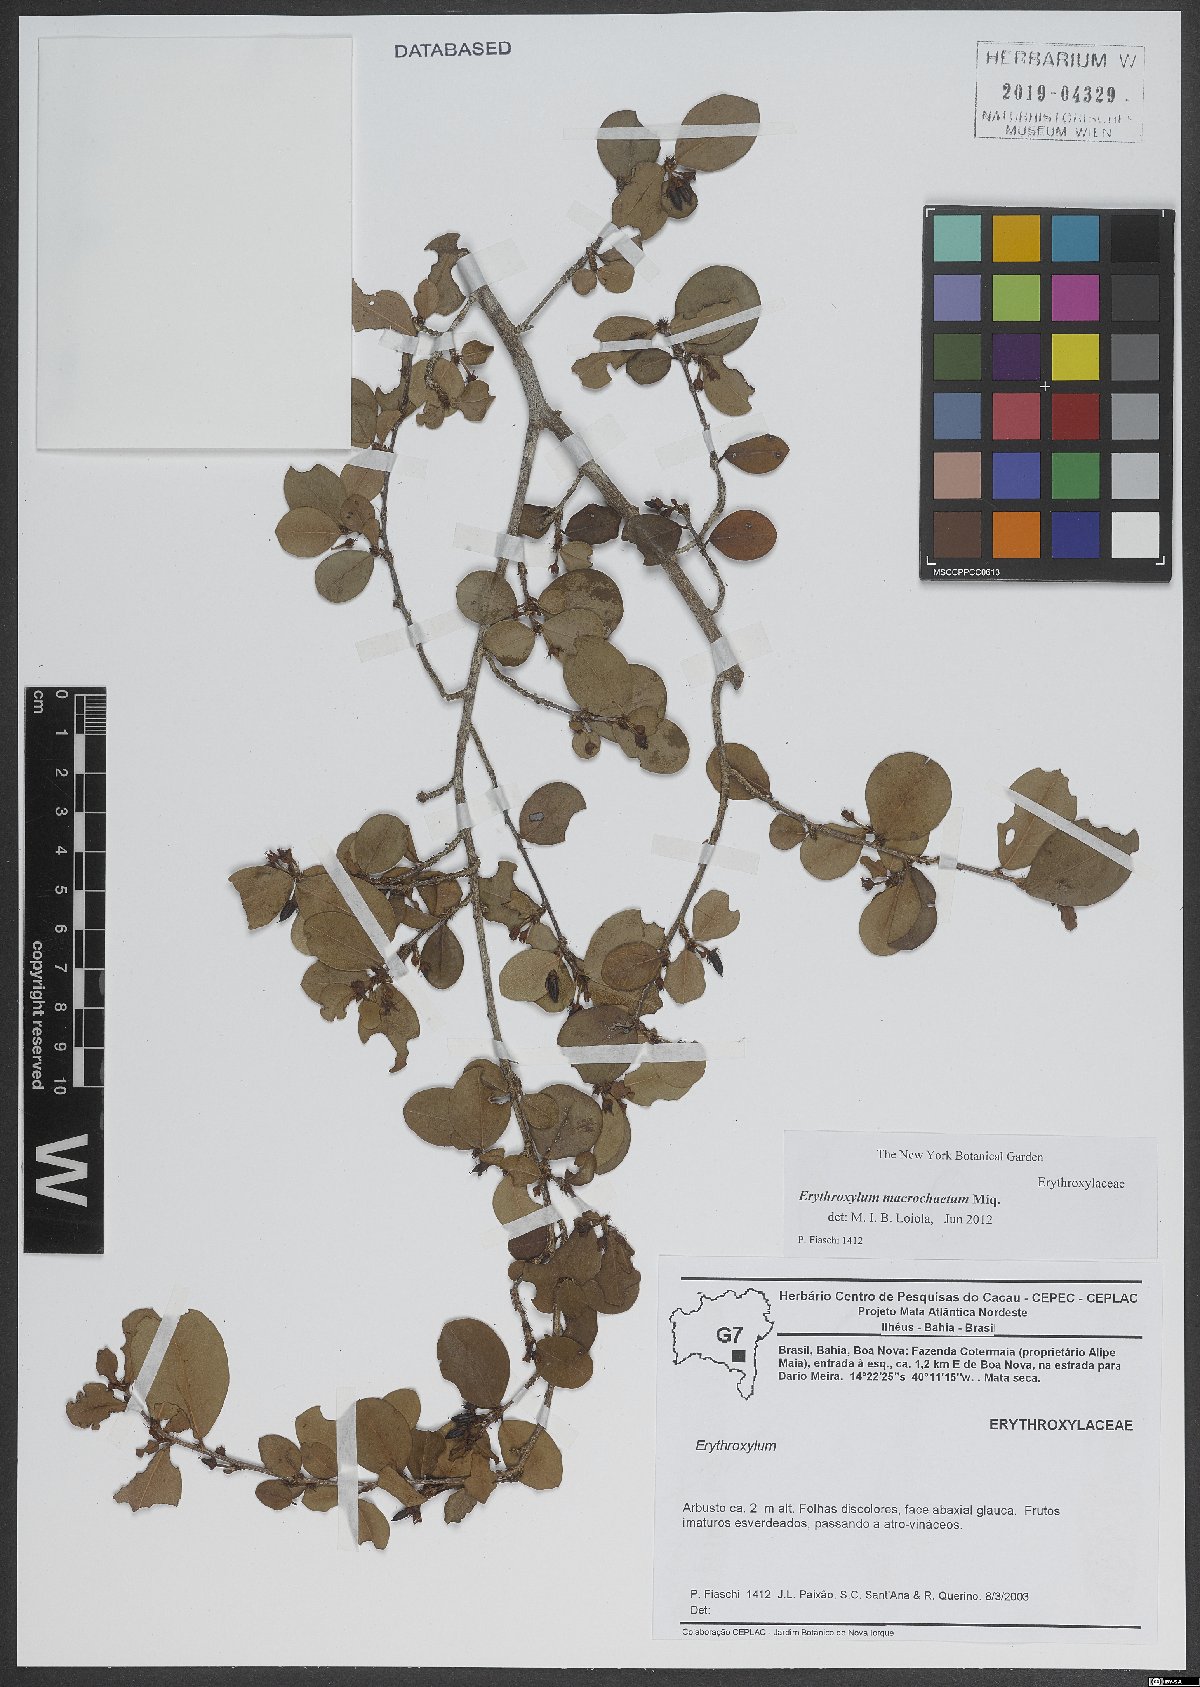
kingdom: Plantae
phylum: Tracheophyta
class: Magnoliopsida
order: Malpighiales
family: Erythroxylaceae
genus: Erythroxylum
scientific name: Erythroxylum macrochaetum
